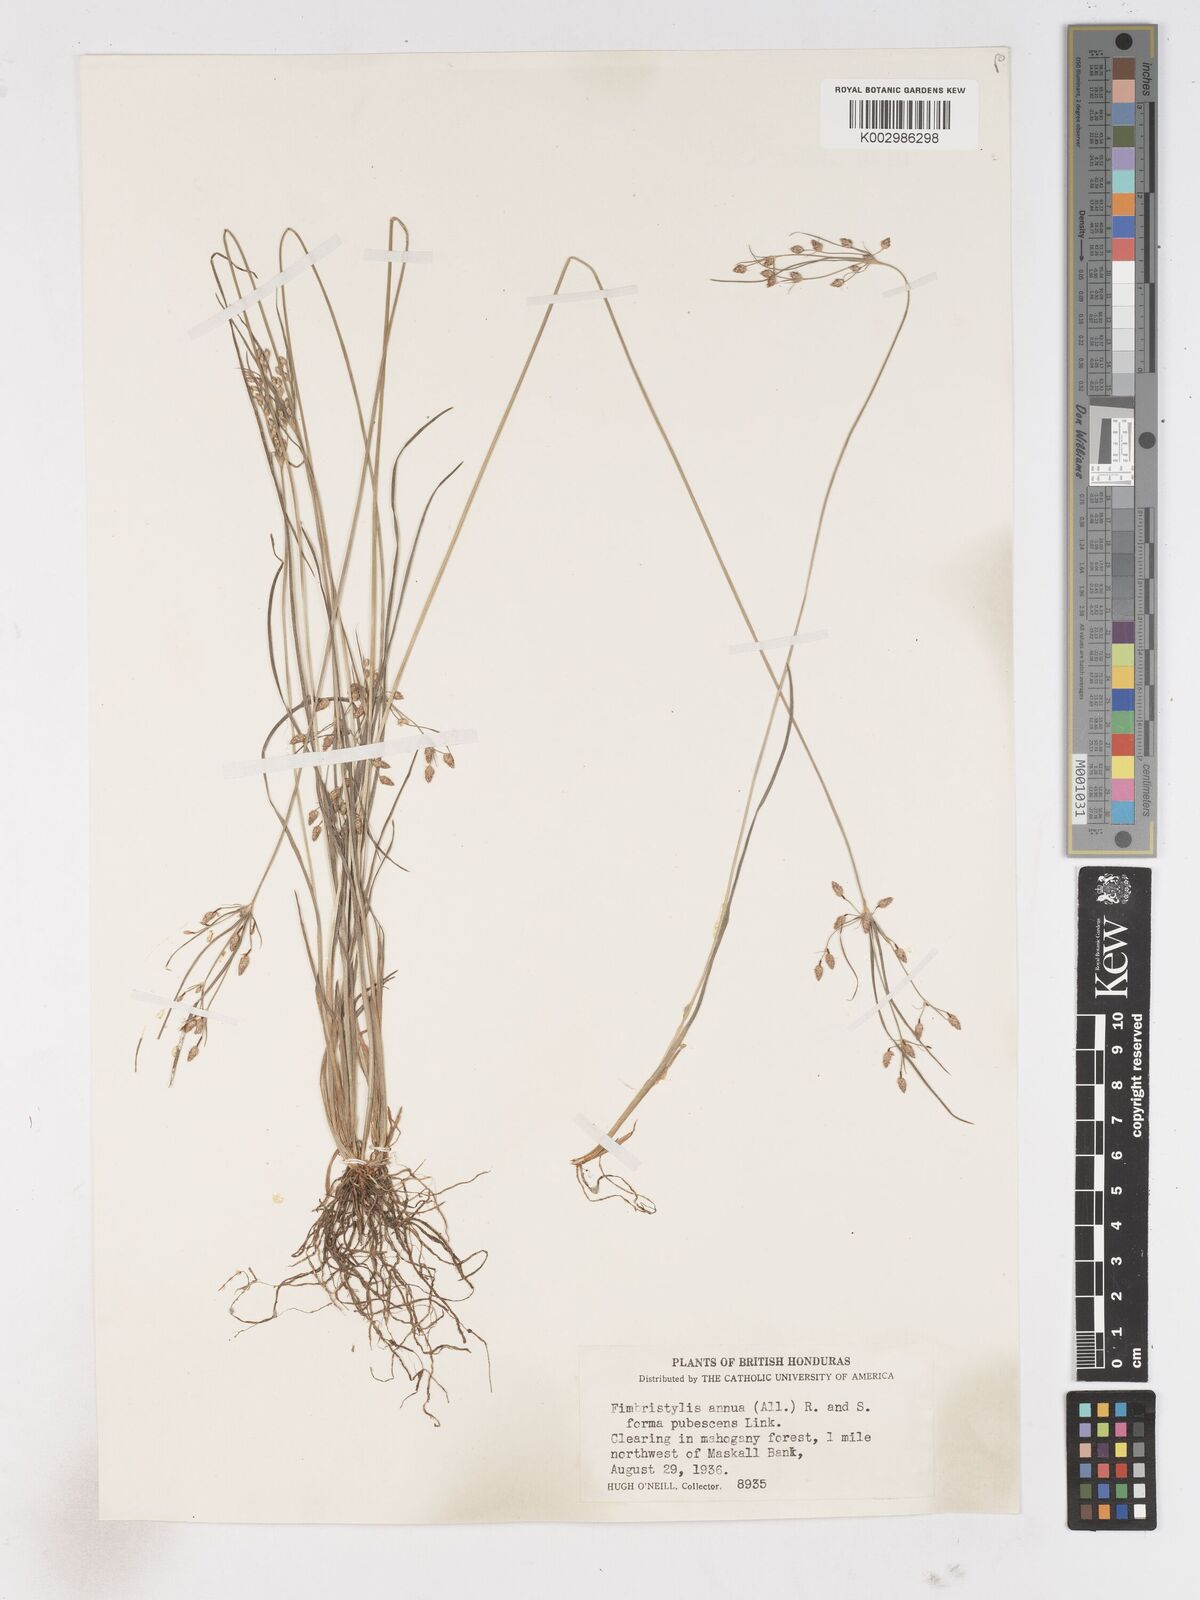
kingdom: Plantae
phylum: Tracheophyta
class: Liliopsida
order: Poales
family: Cyperaceae
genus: Fimbristylis
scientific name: Fimbristylis dichotoma
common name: Forked fimbry
